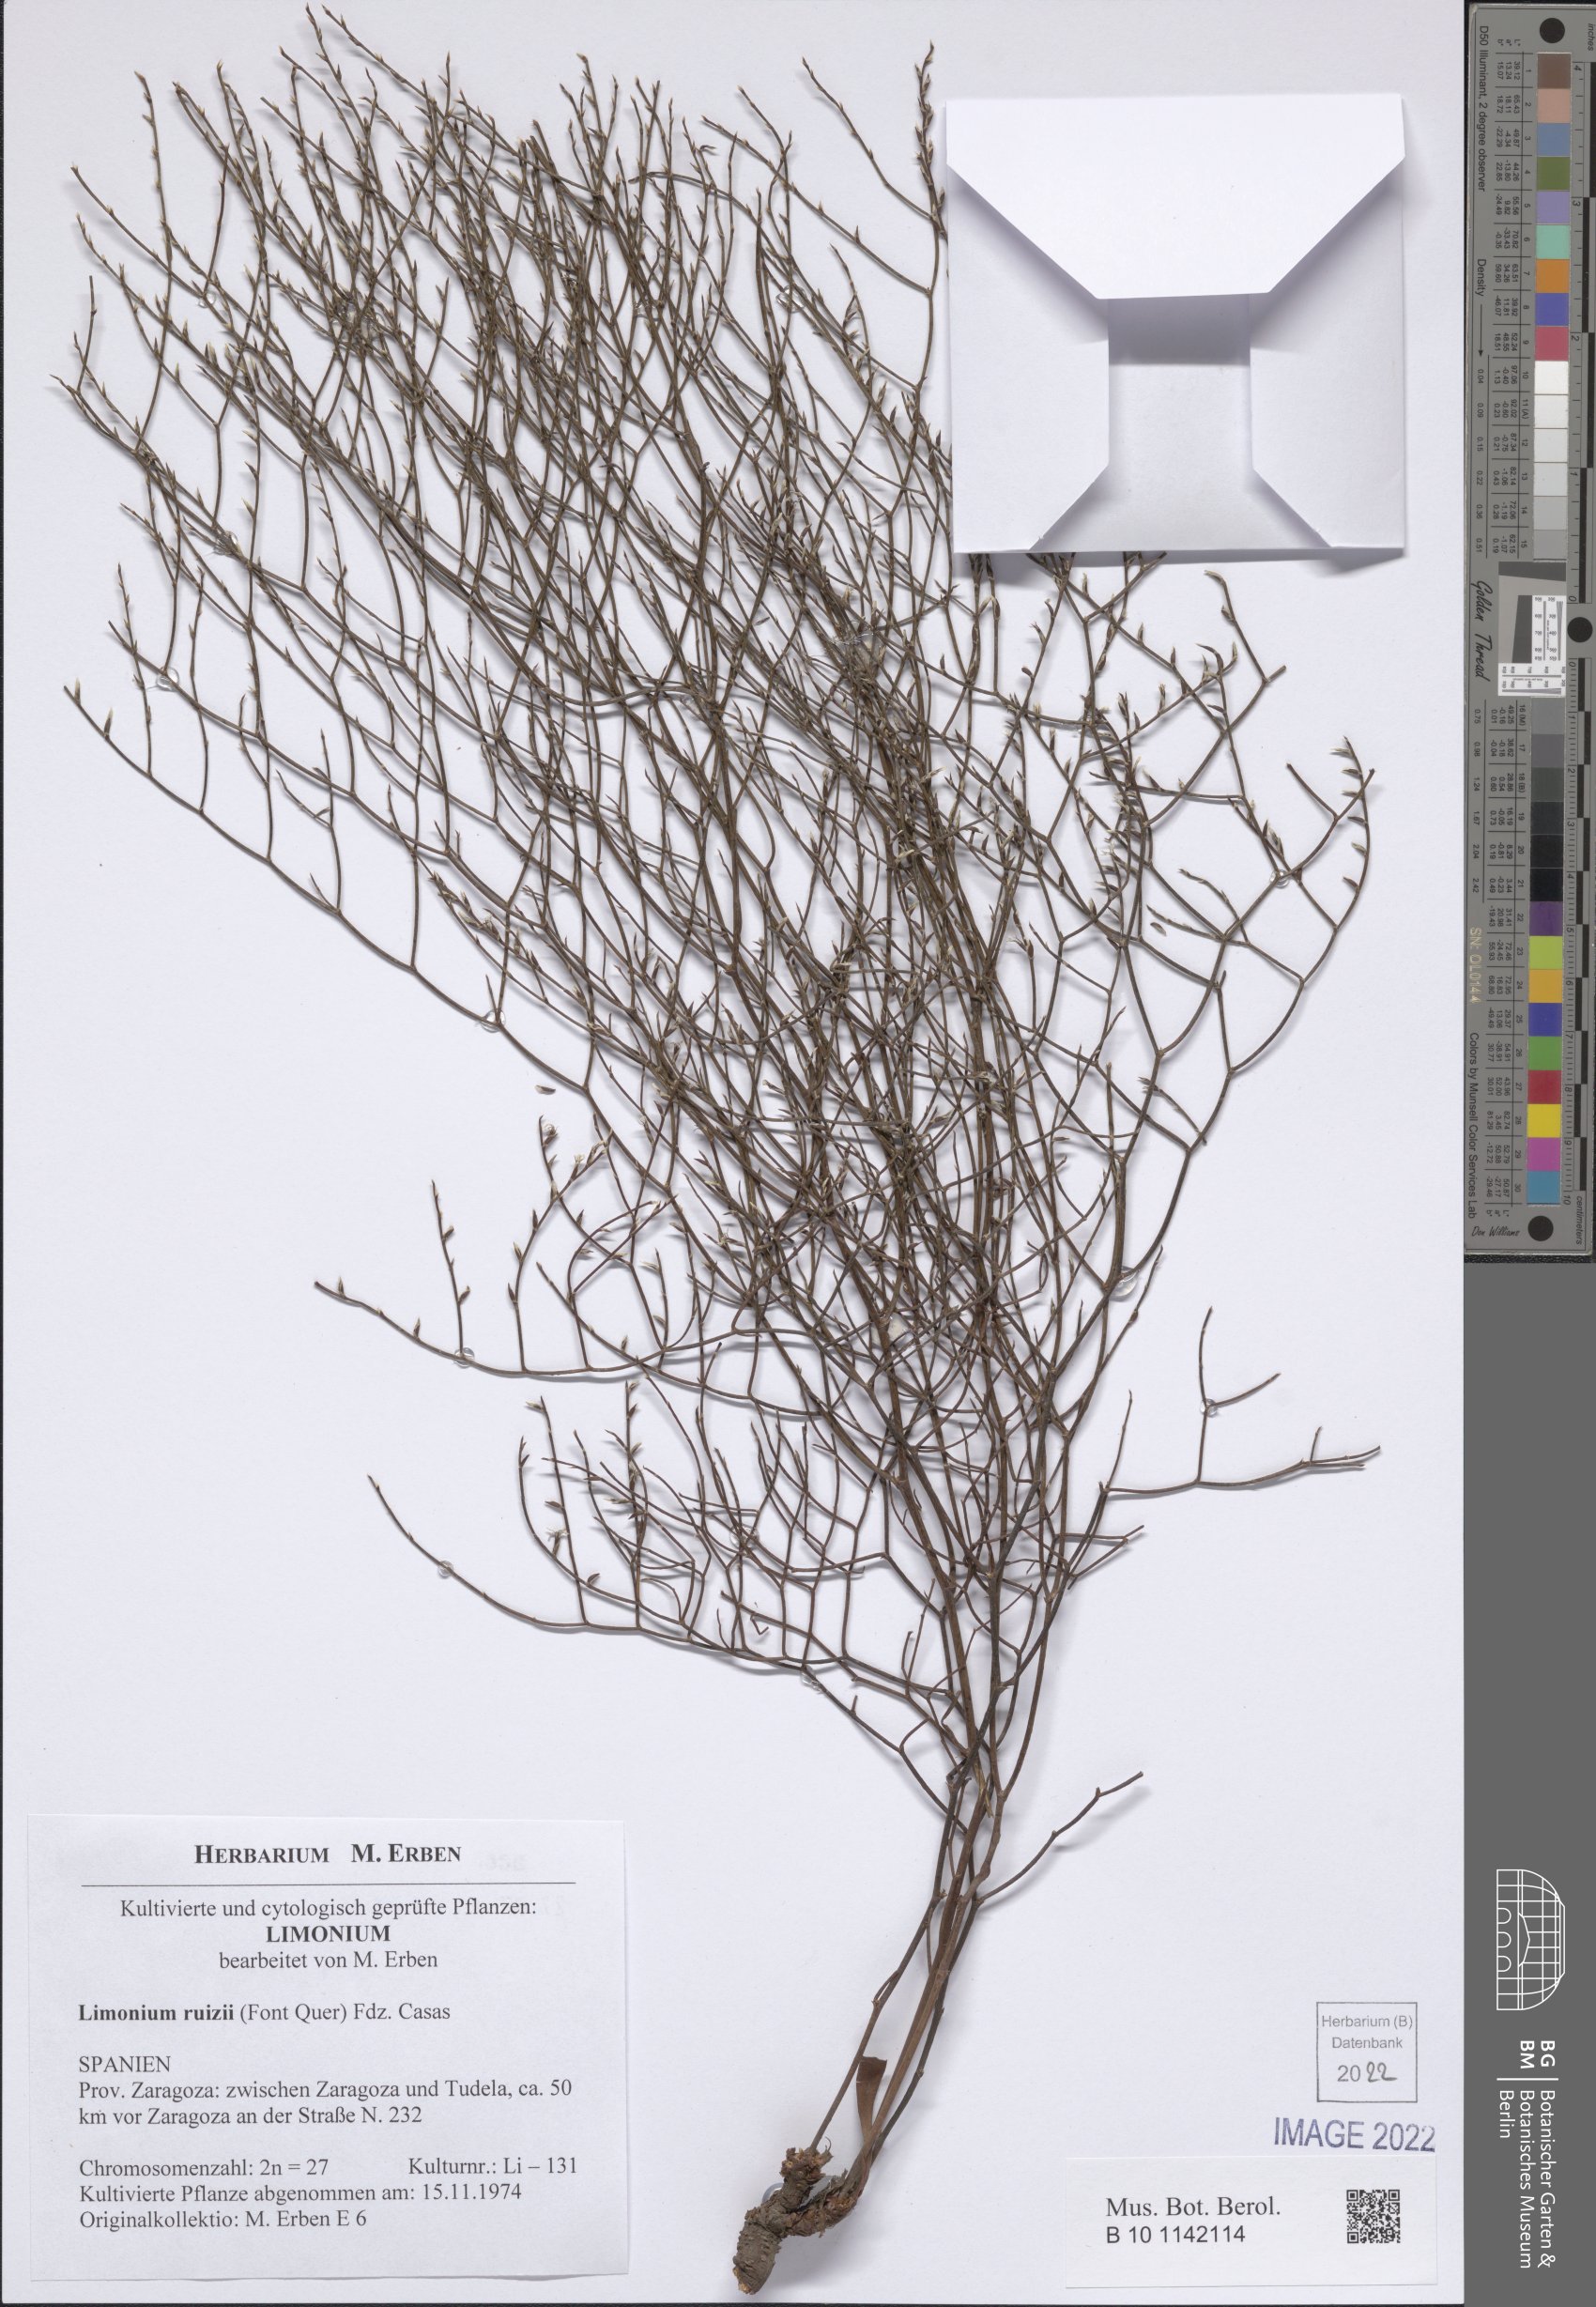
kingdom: Plantae
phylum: Tracheophyta
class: Magnoliopsida
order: Caryophyllales
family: Plumbaginaceae
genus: Limonium
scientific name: Limonium ruizii
